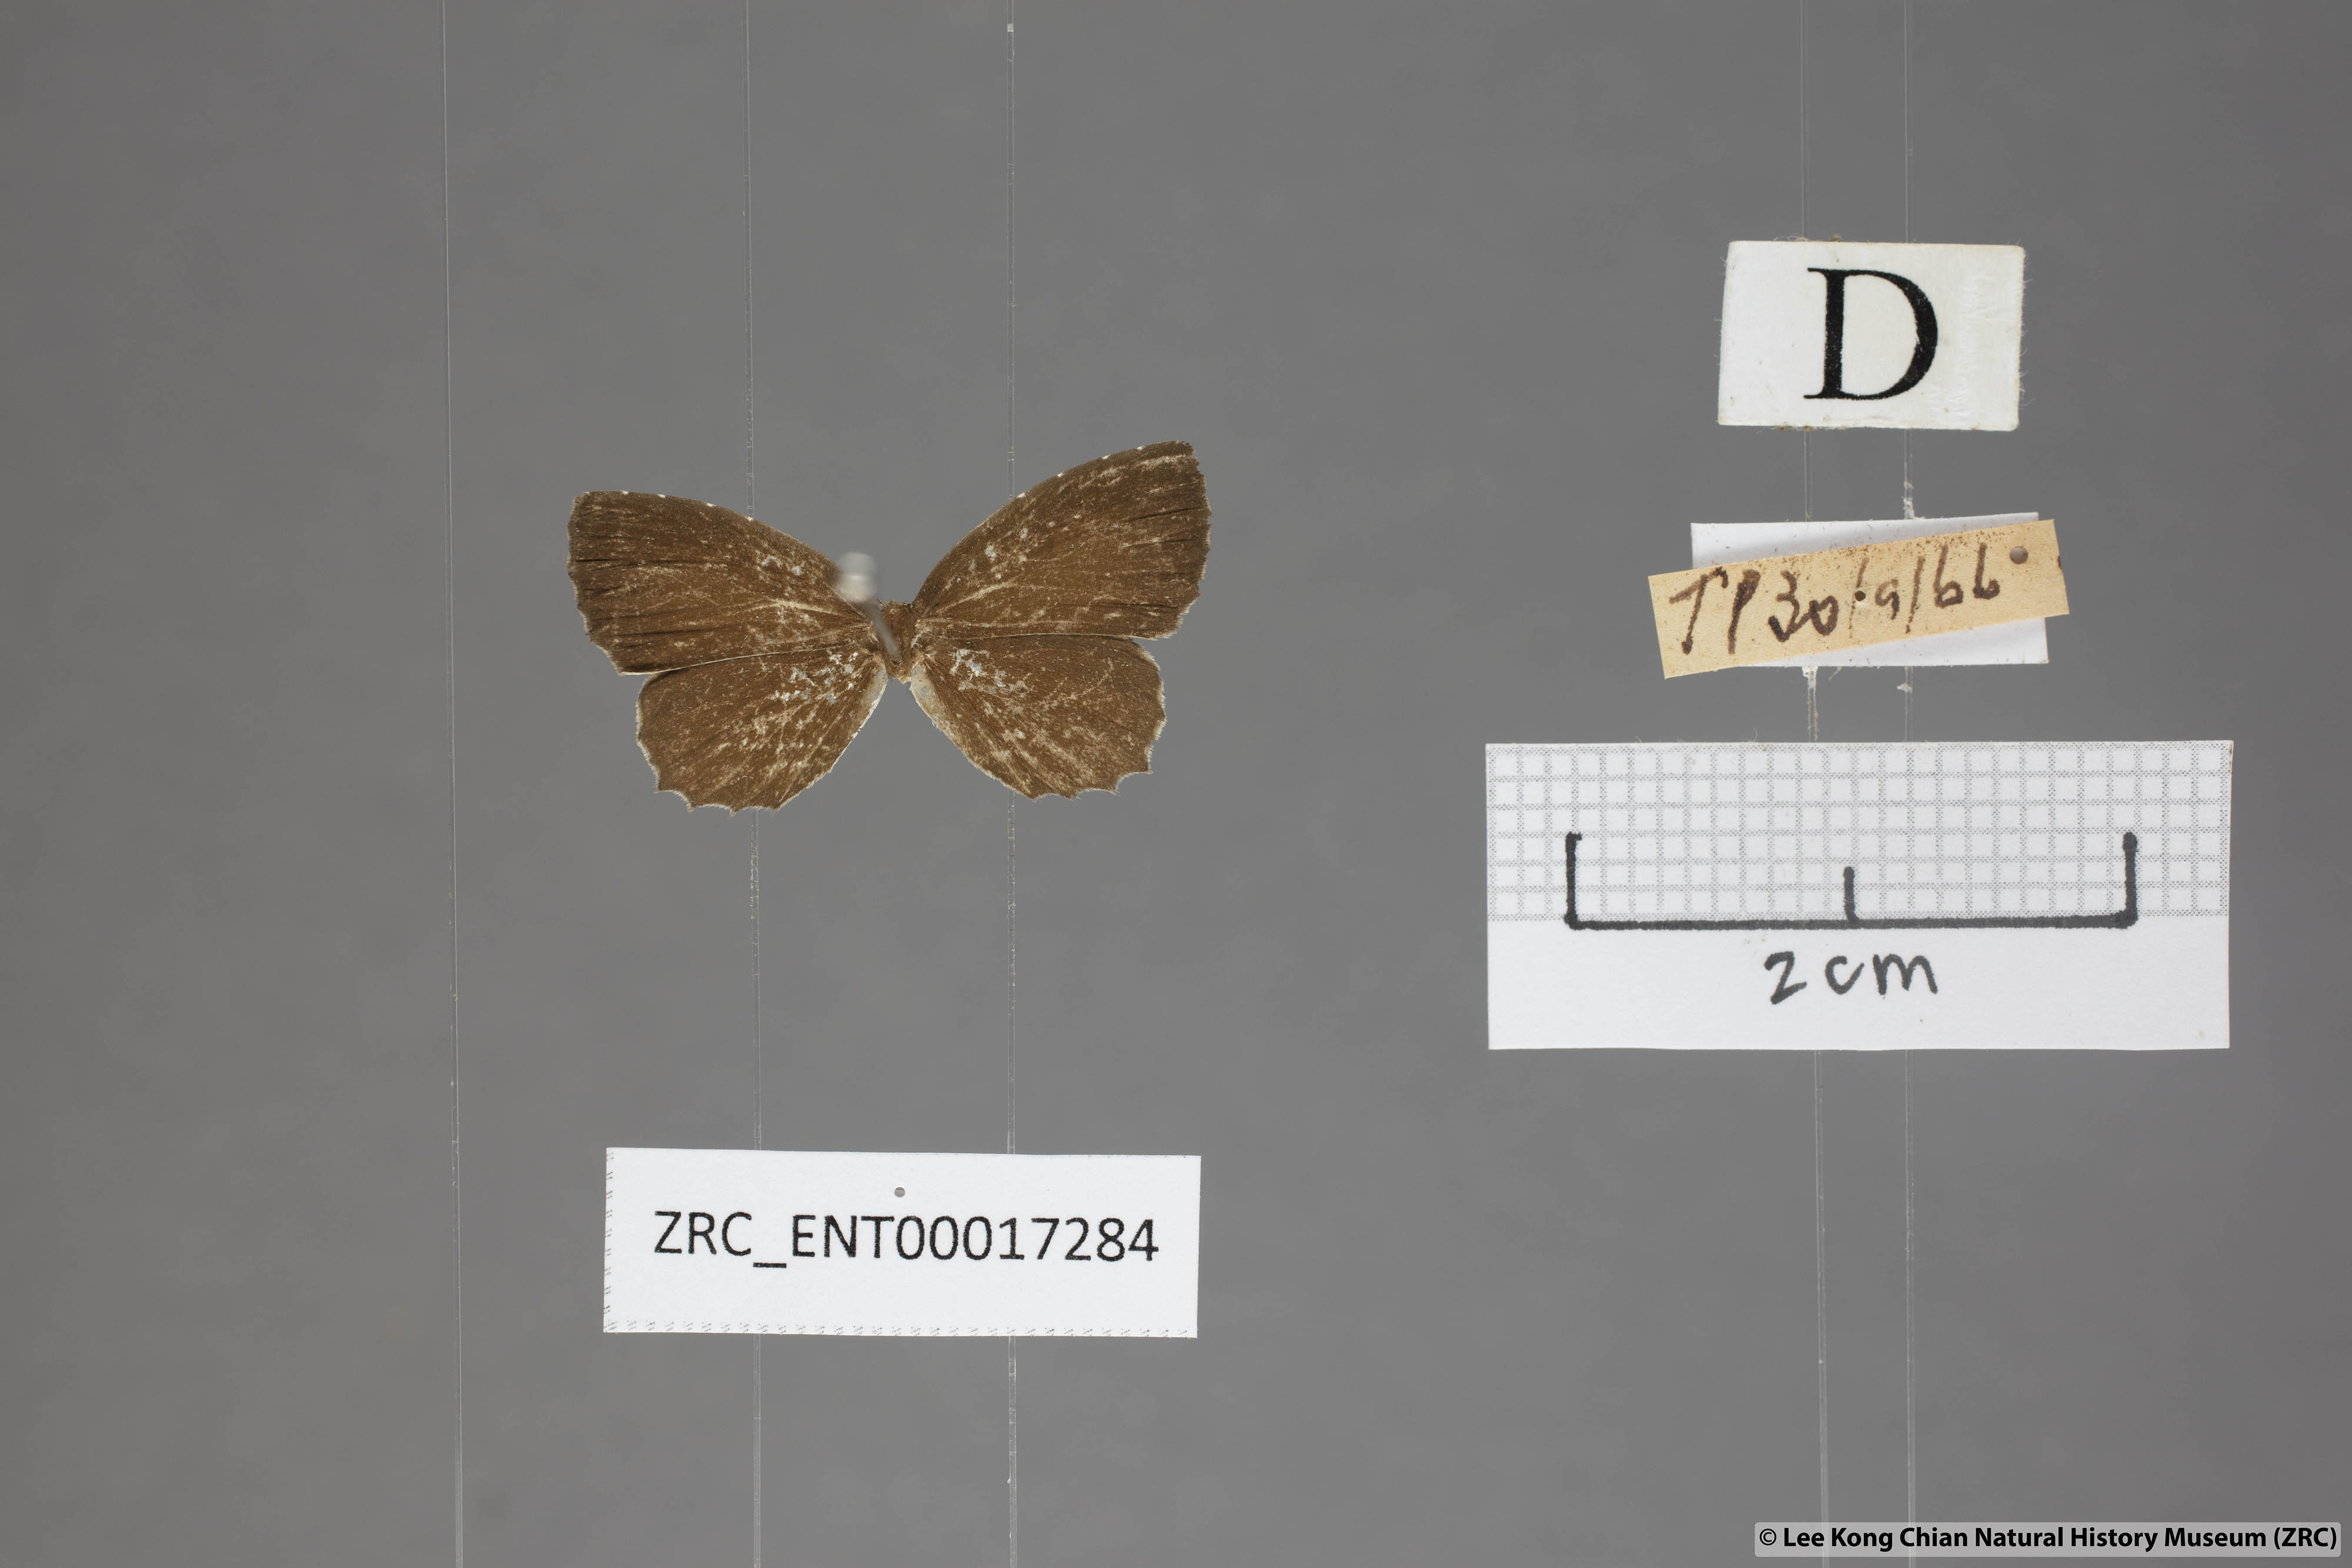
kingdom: Animalia
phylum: Arthropoda
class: Insecta
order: Lepidoptera
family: Lycaenidae
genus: Allotinus
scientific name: Allotinus substrigosa
